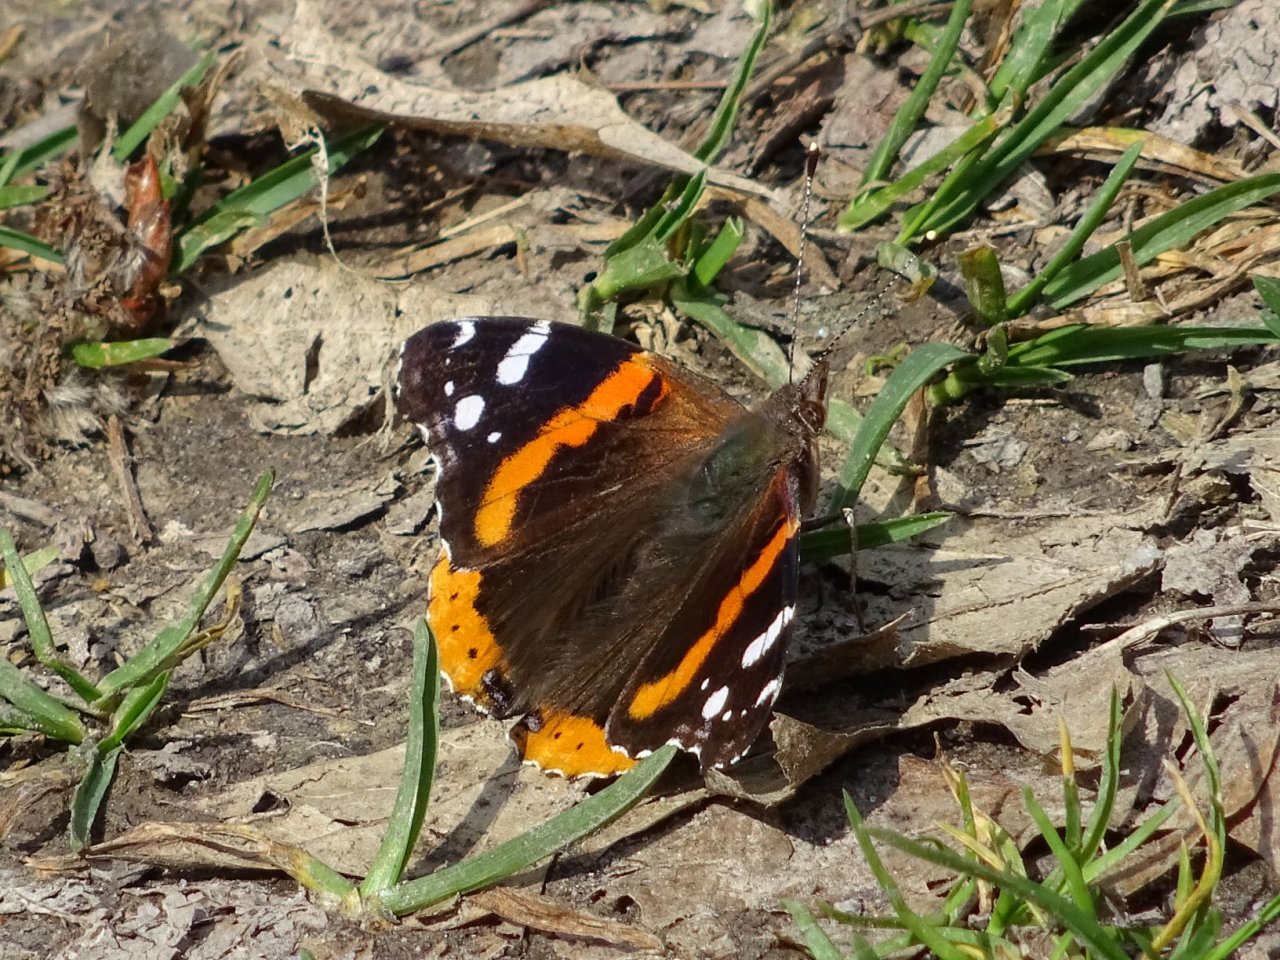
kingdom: Animalia
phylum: Arthropoda
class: Insecta
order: Lepidoptera
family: Nymphalidae
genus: Vanessa
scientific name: Vanessa atalanta
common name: Red Admiral
